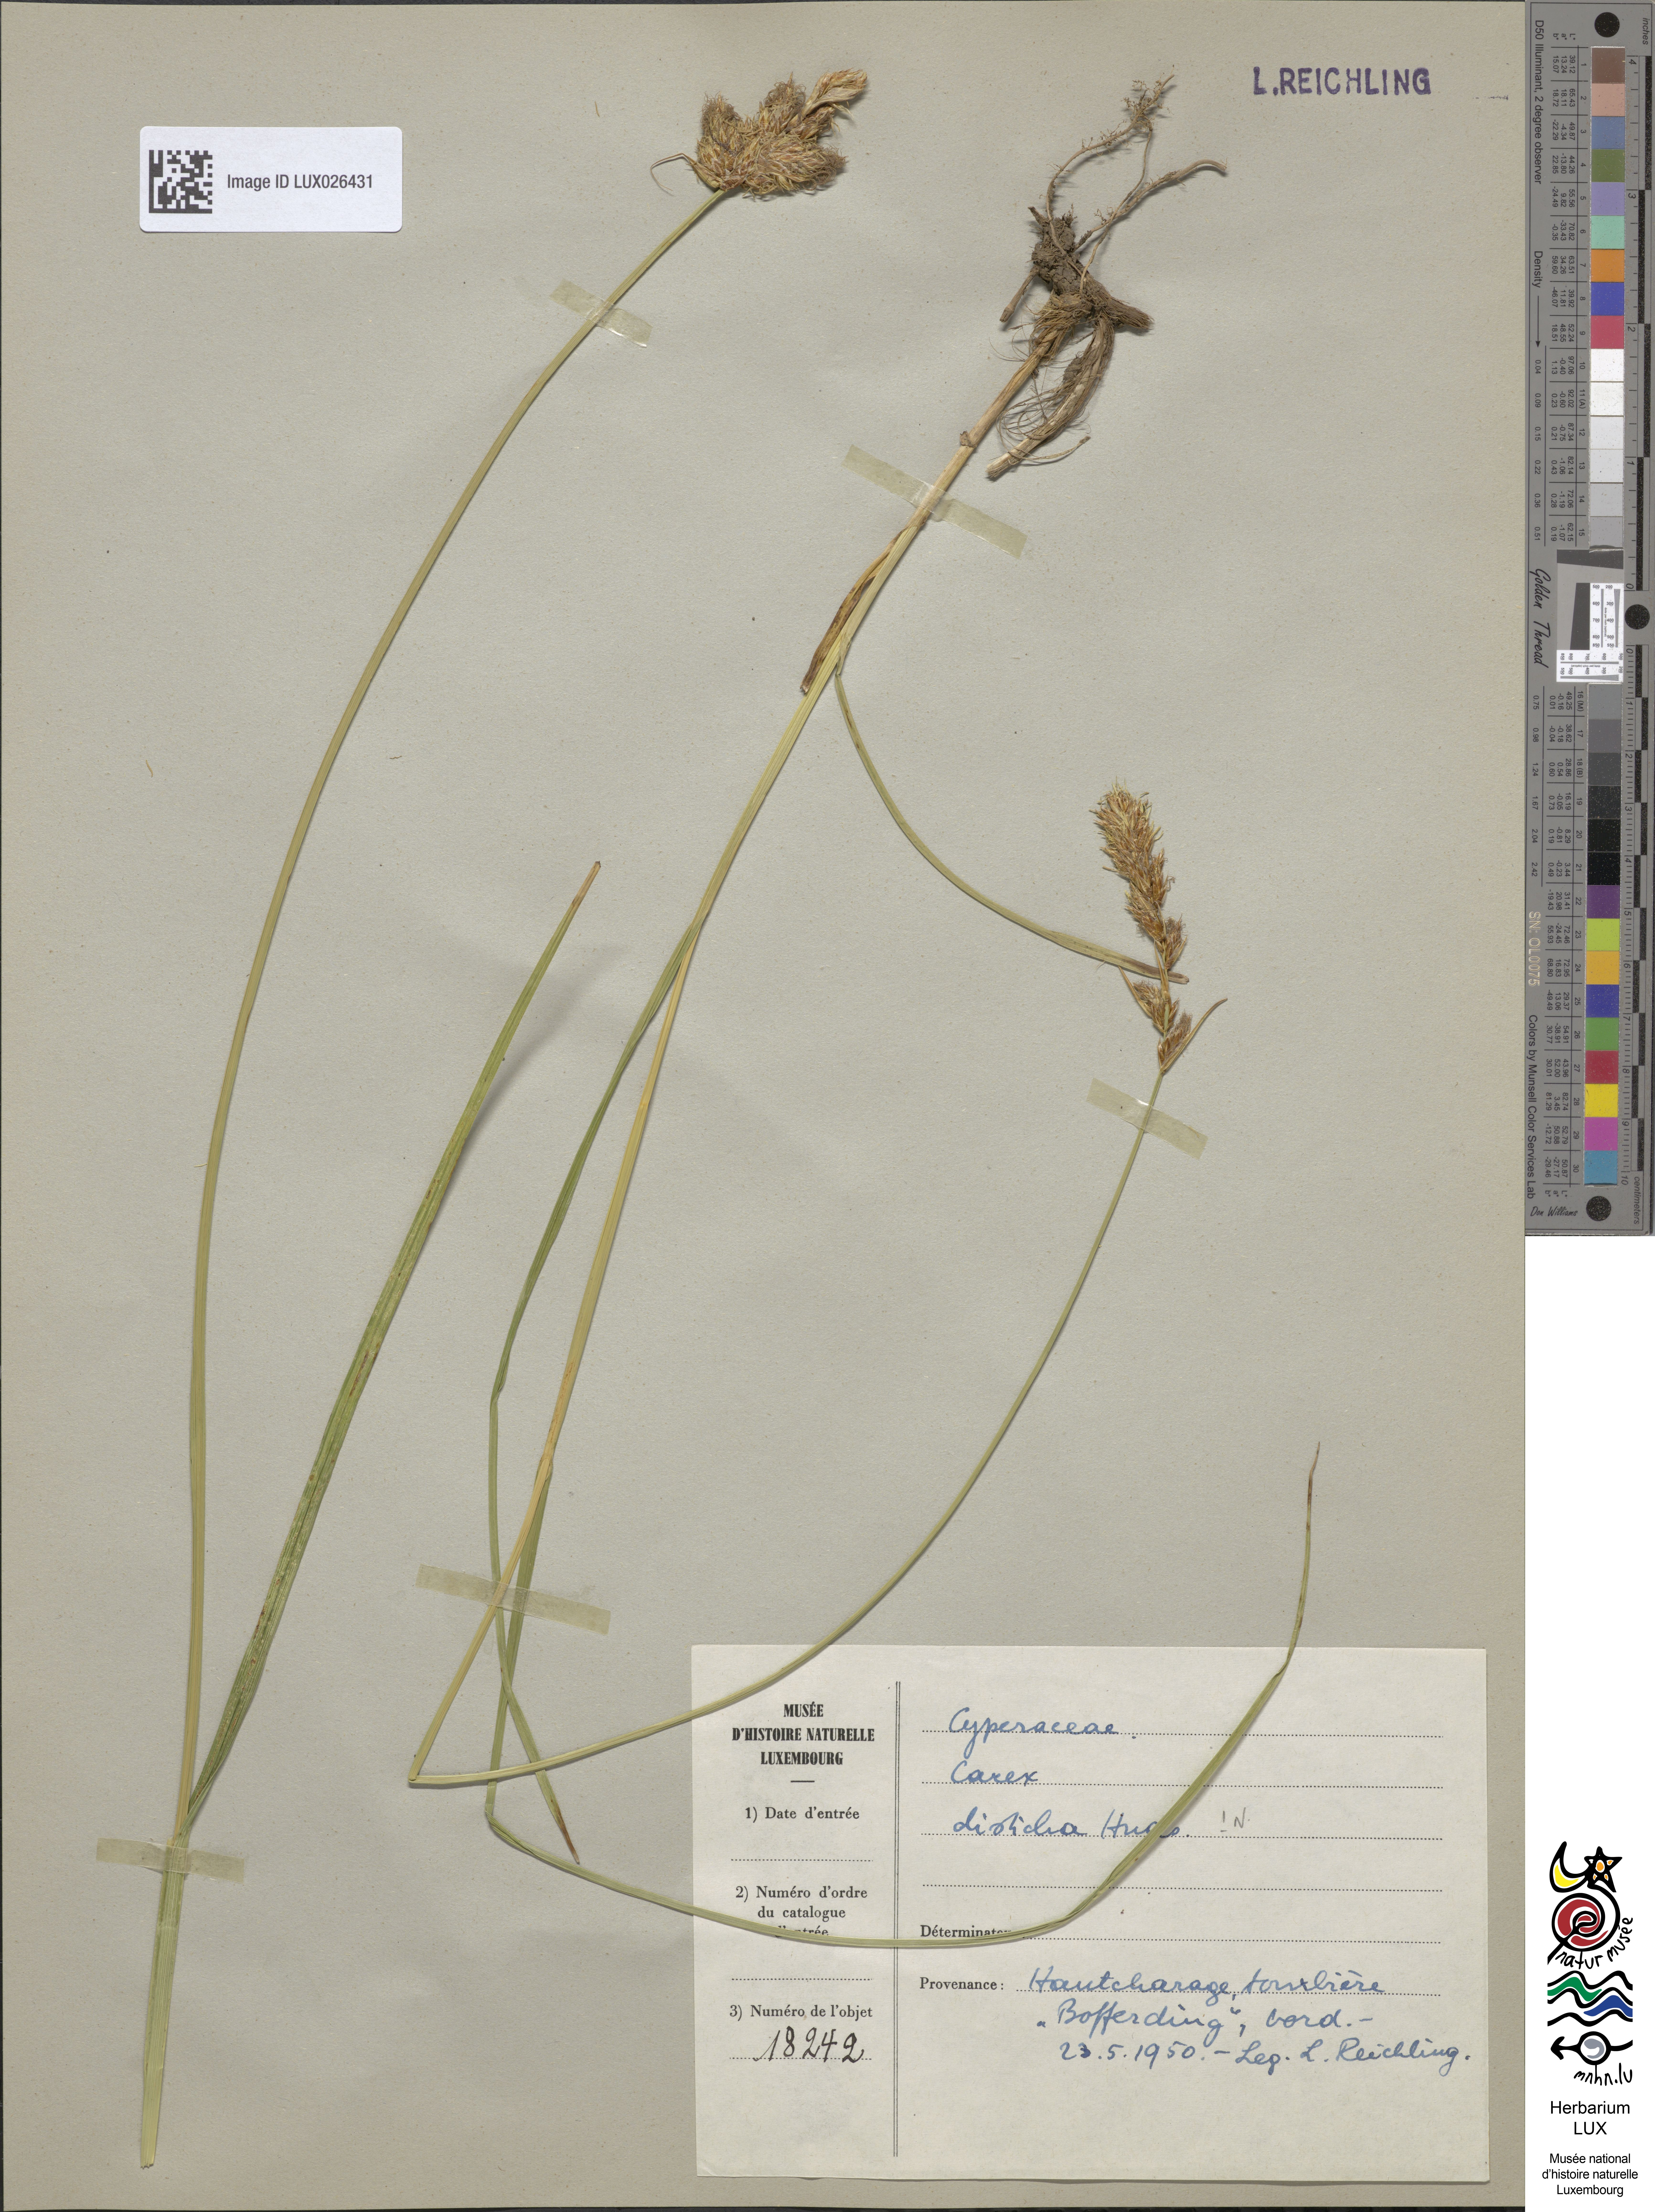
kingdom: Plantae
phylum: Tracheophyta
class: Liliopsida
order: Poales
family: Cyperaceae
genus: Carex
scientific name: Carex disticha
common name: Brown sedge
